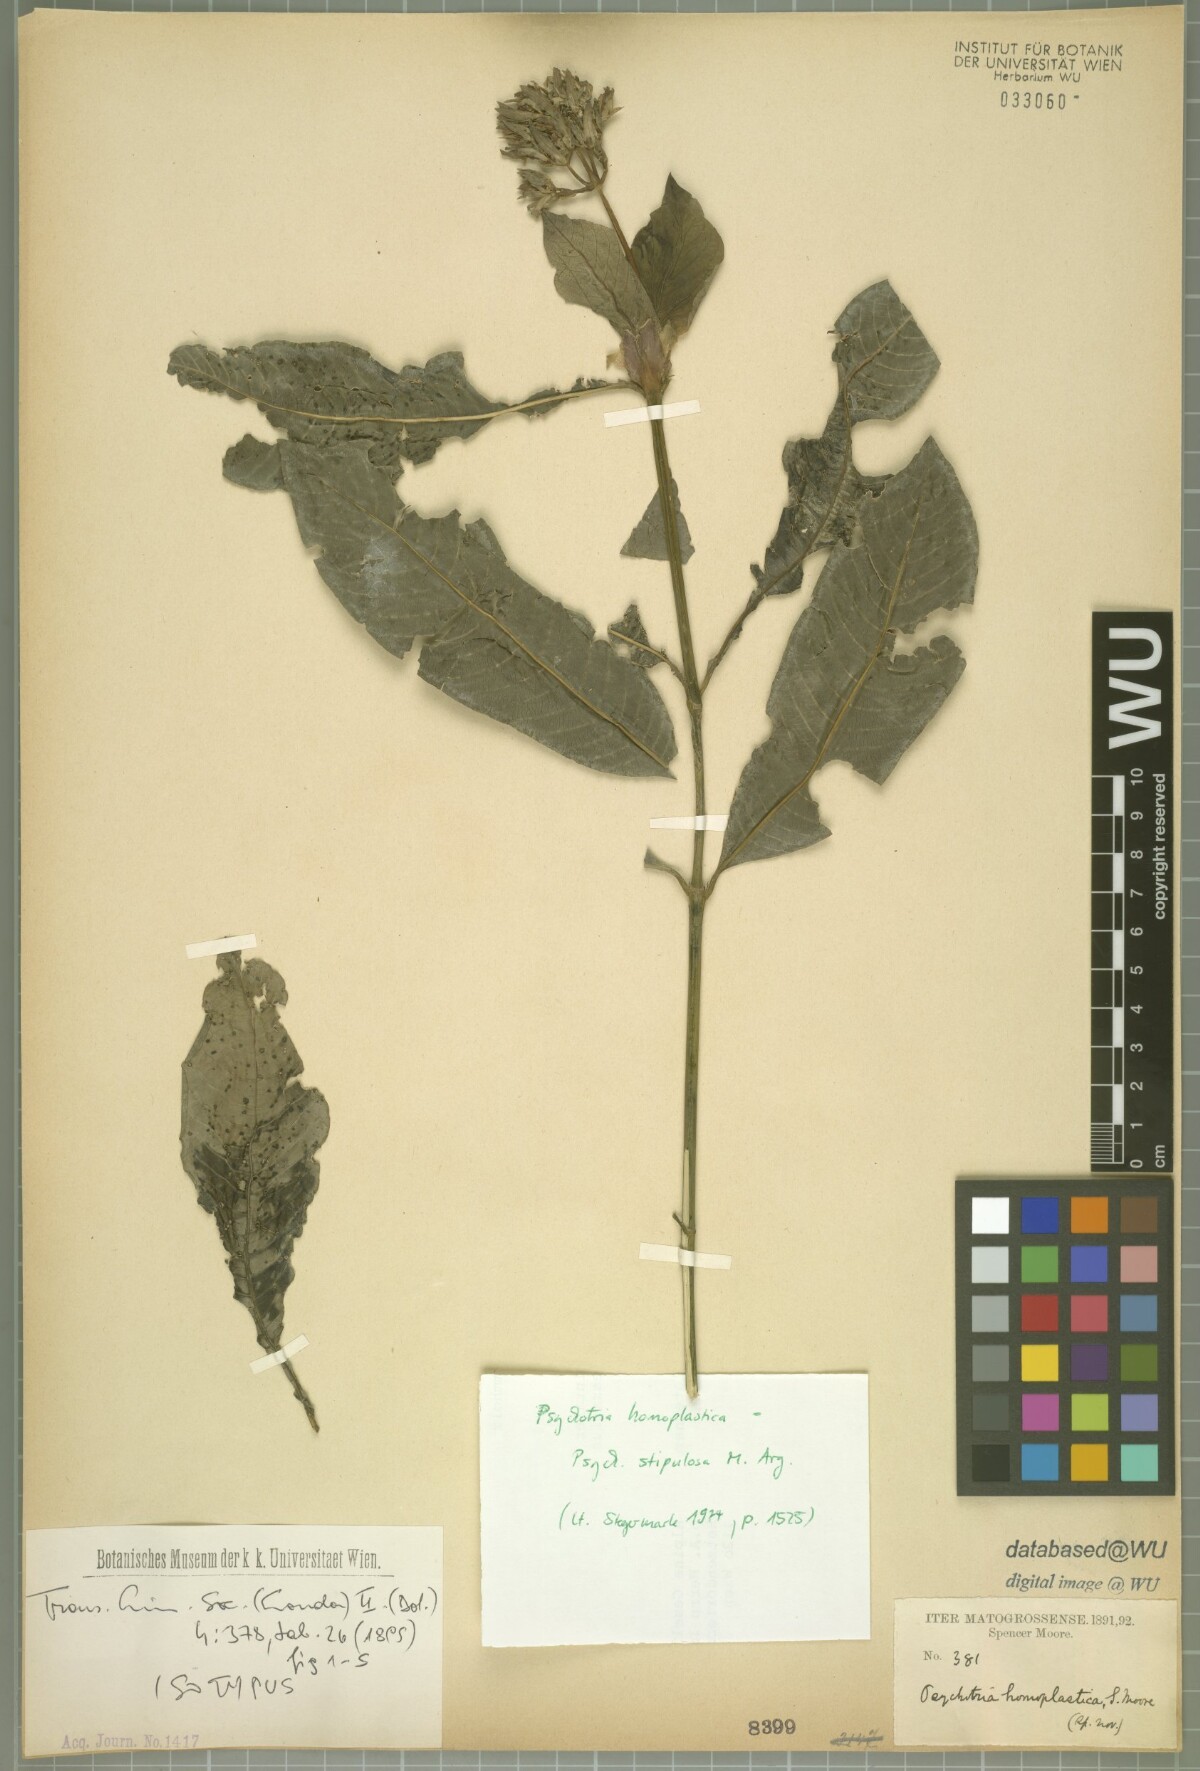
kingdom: Plantae
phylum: Tracheophyta
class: Magnoliopsida
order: Gentianales
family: Rubiaceae
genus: Palicourea
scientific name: Palicourea stipulosa
